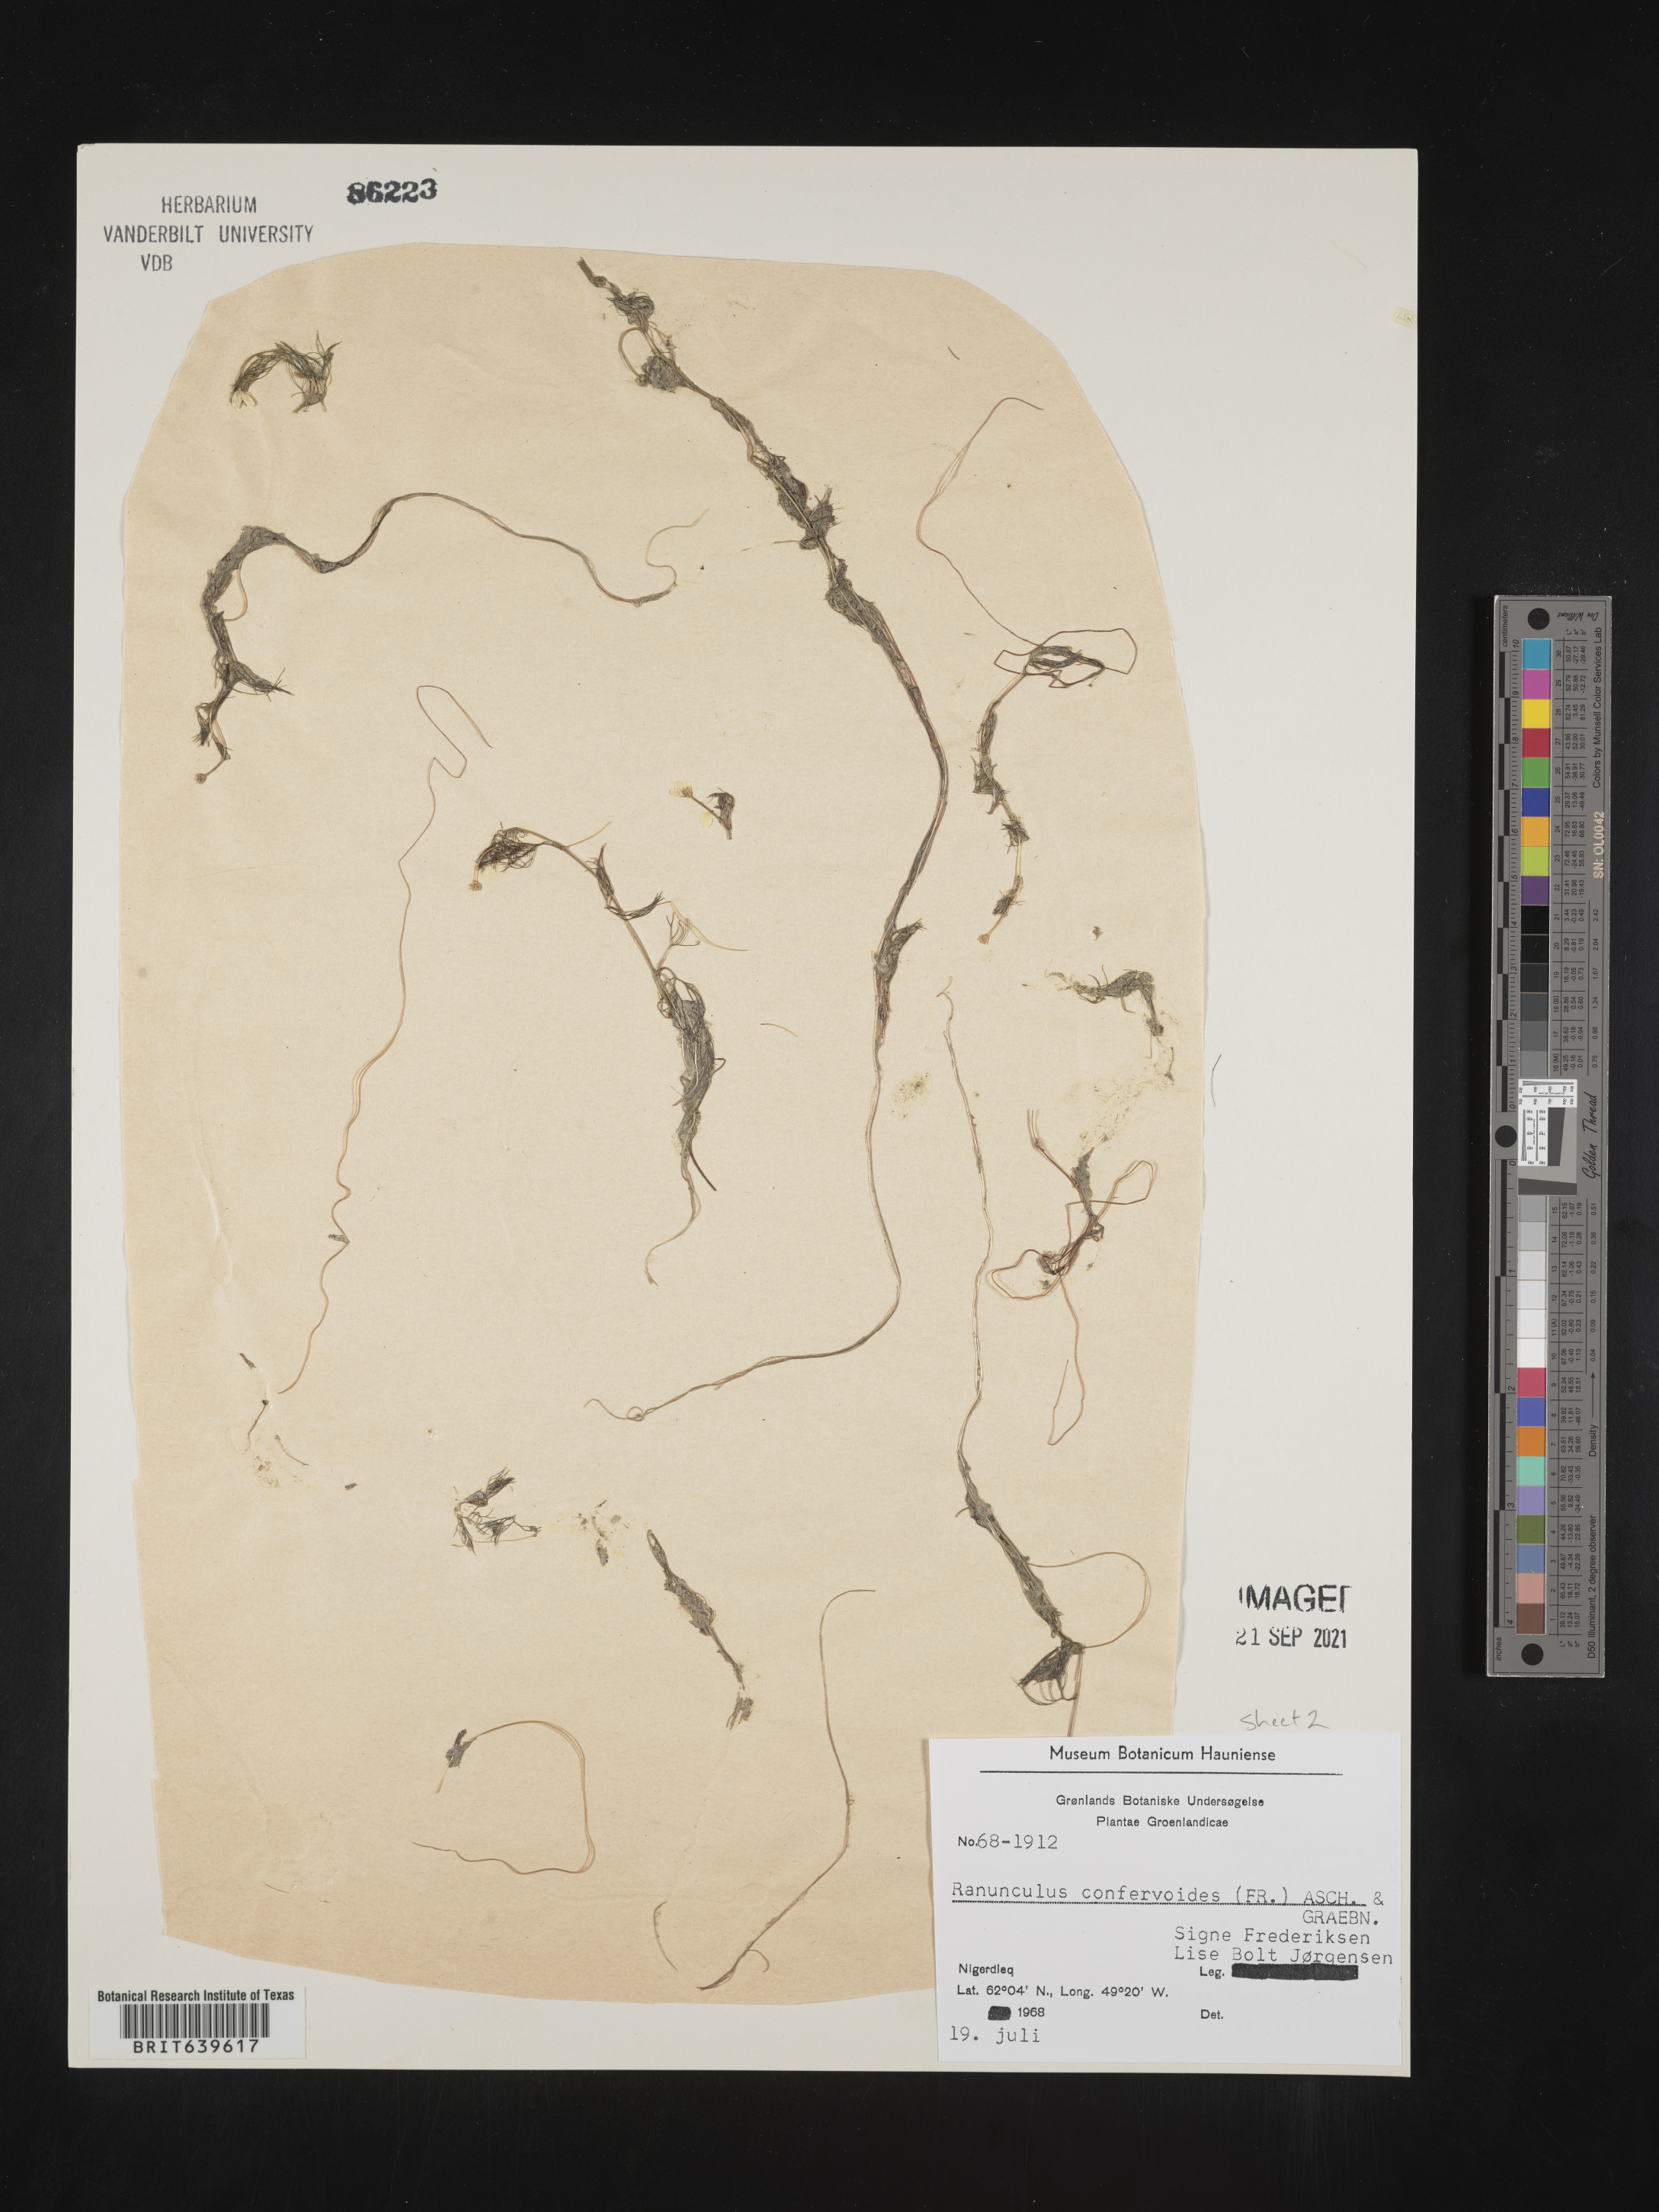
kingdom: Plantae
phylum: Tracheophyta
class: Magnoliopsida
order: Ranunculales
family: Ranunculaceae
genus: Ranunculus
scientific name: Ranunculus
